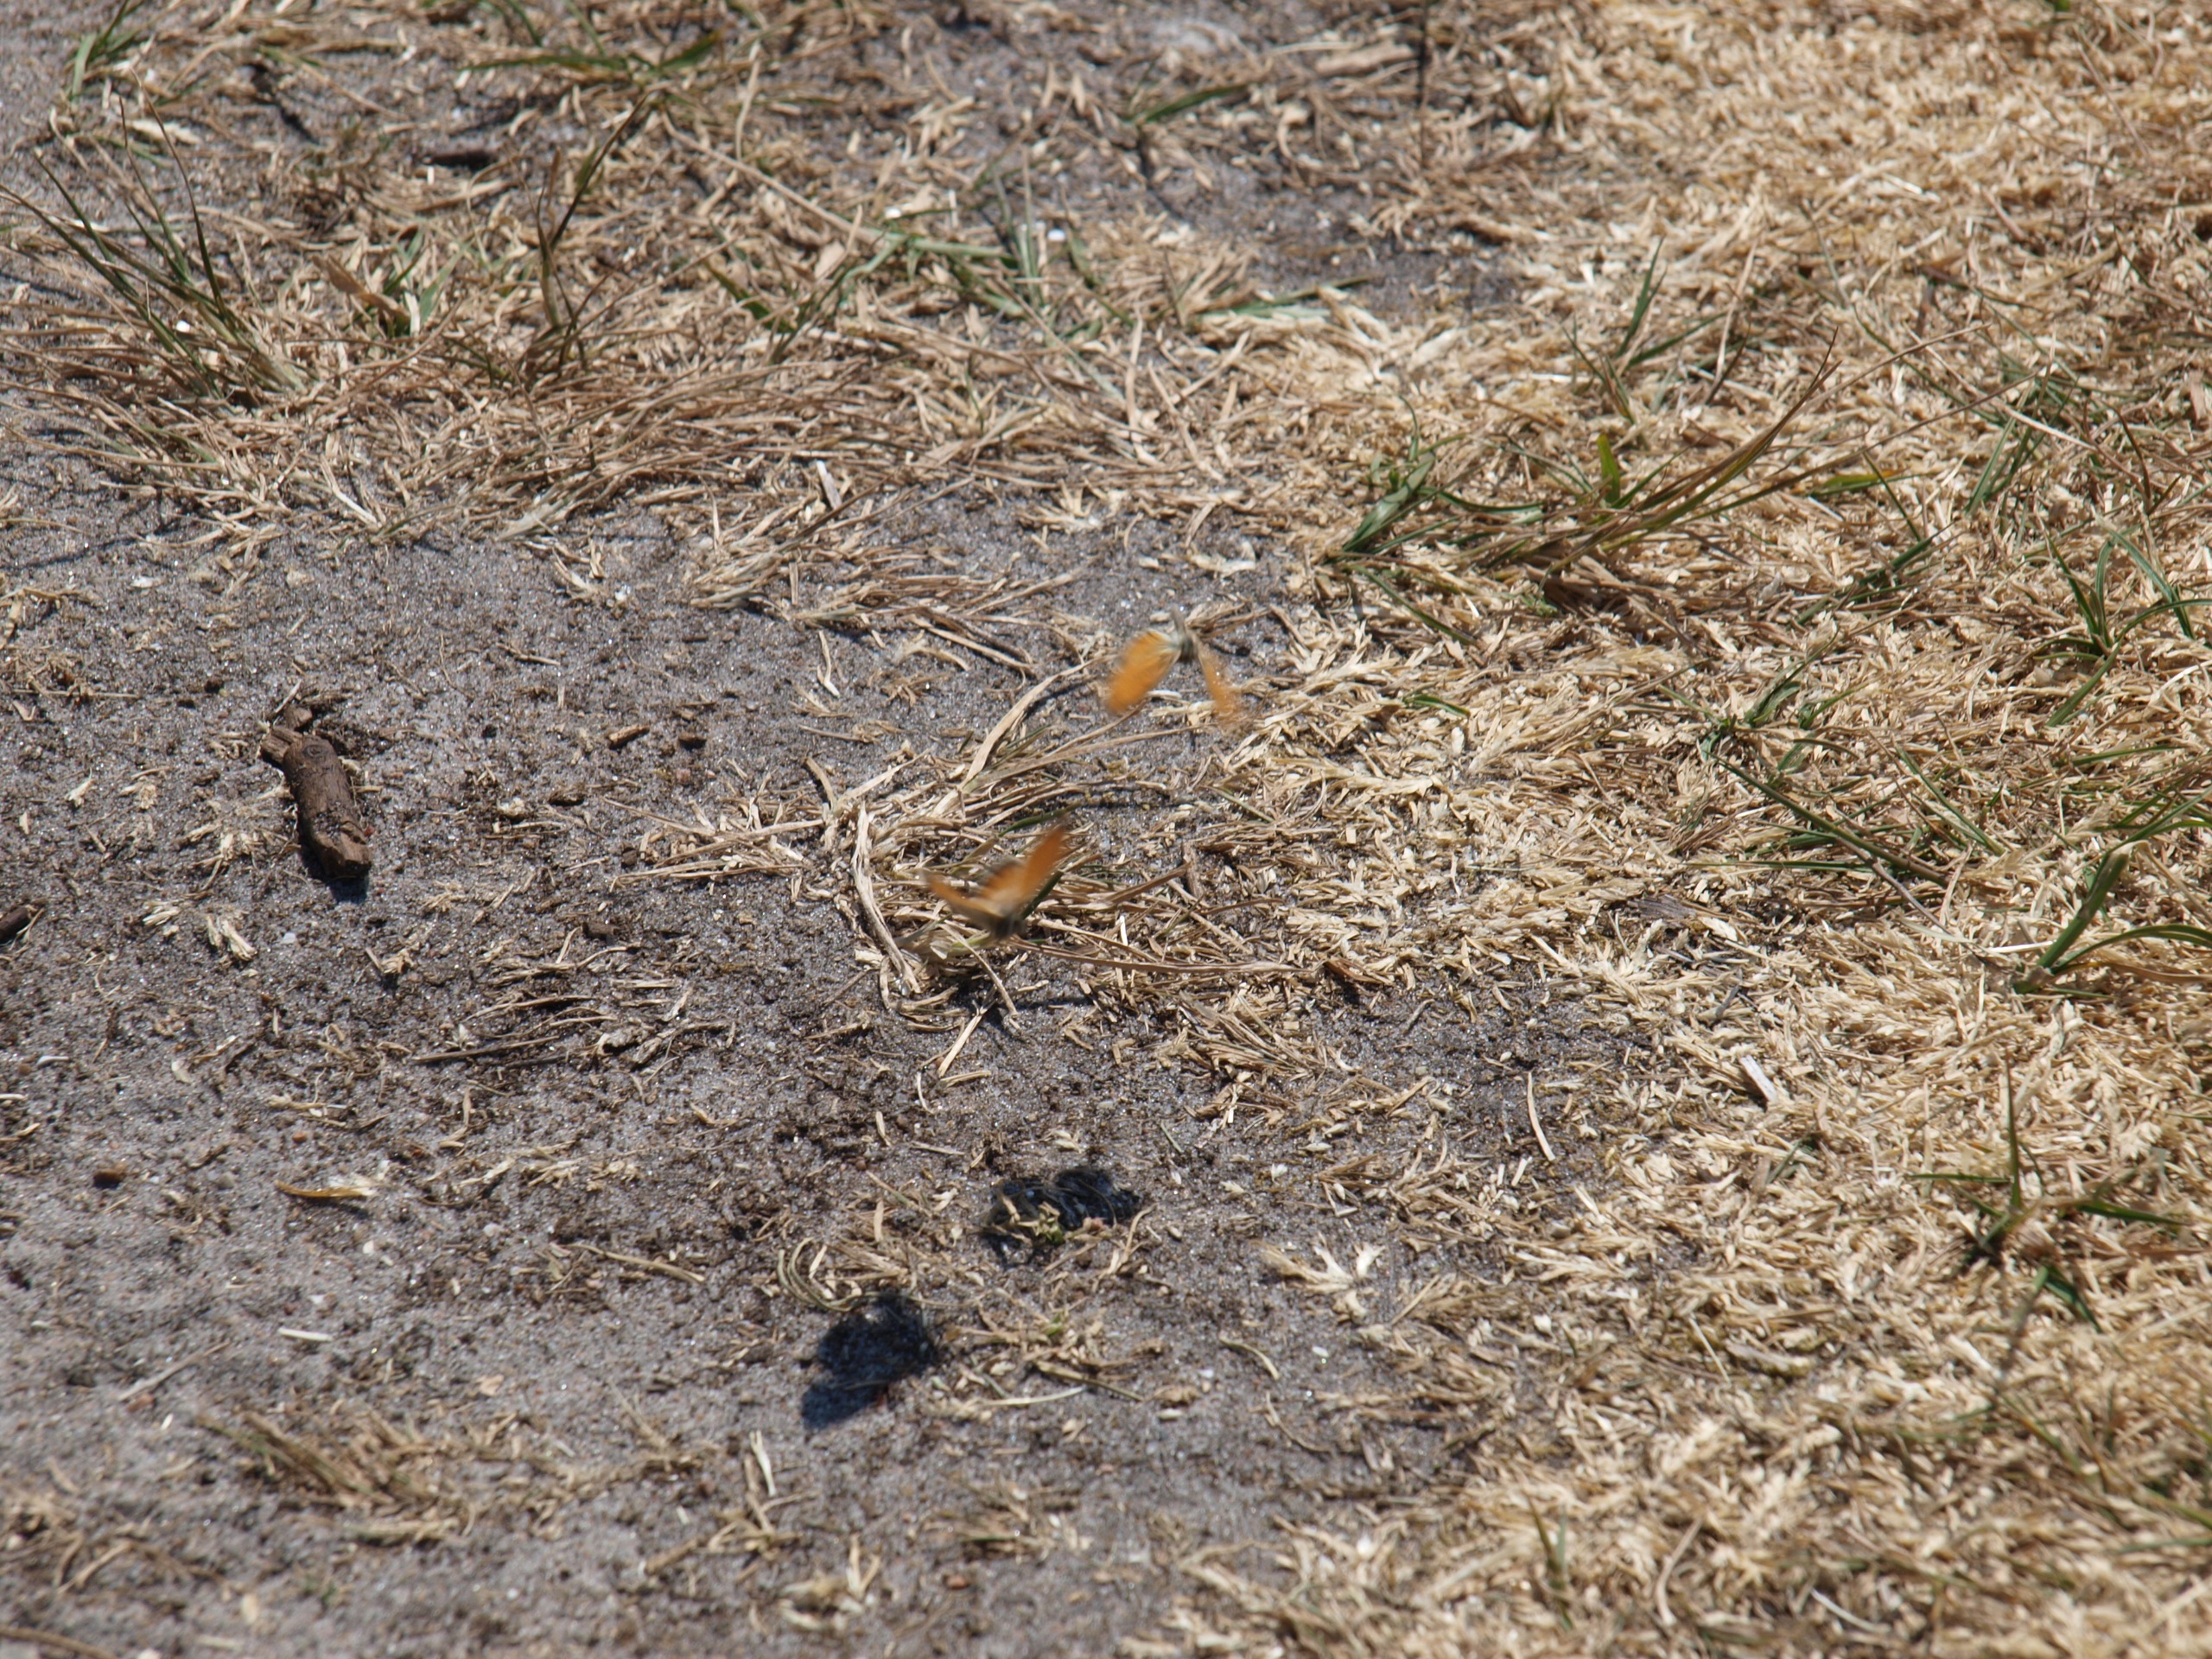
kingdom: Animalia
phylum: Arthropoda
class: Insecta
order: Lepidoptera
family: Nymphalidae
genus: Coenonympha
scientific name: Coenonympha pamphilus
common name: Okkergul randøje
